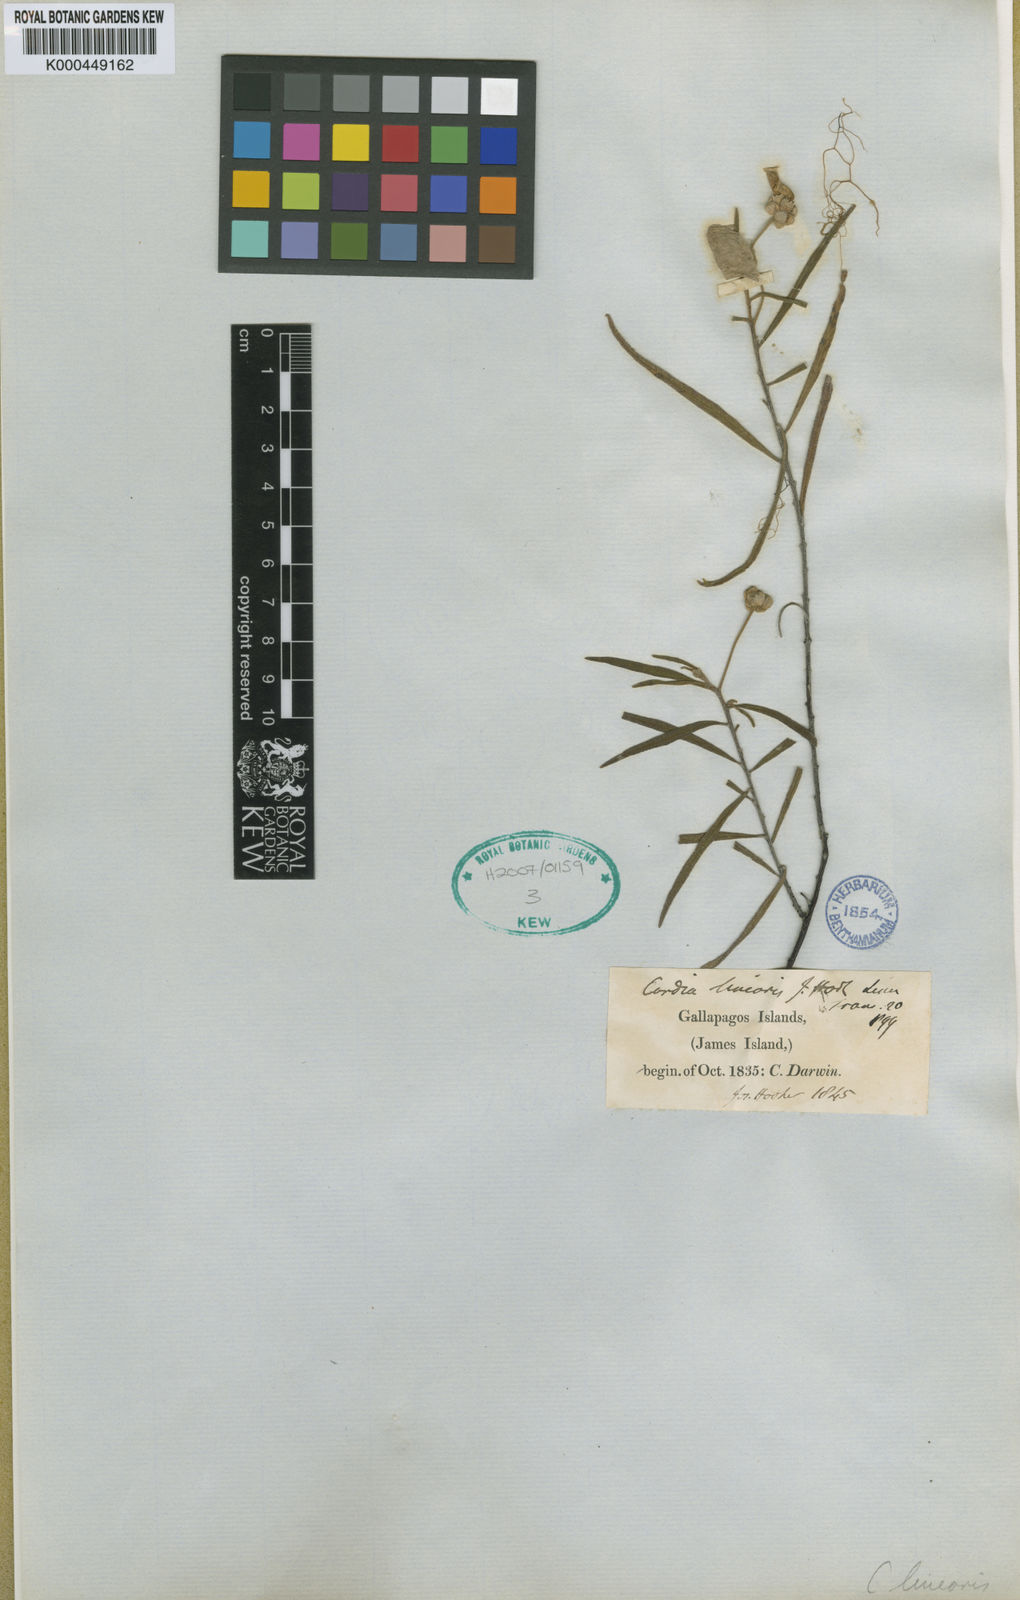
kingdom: Plantae
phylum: Tracheophyta
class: Magnoliopsida
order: Boraginales
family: Cordiaceae
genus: Varronia
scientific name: Varronia revoluta
